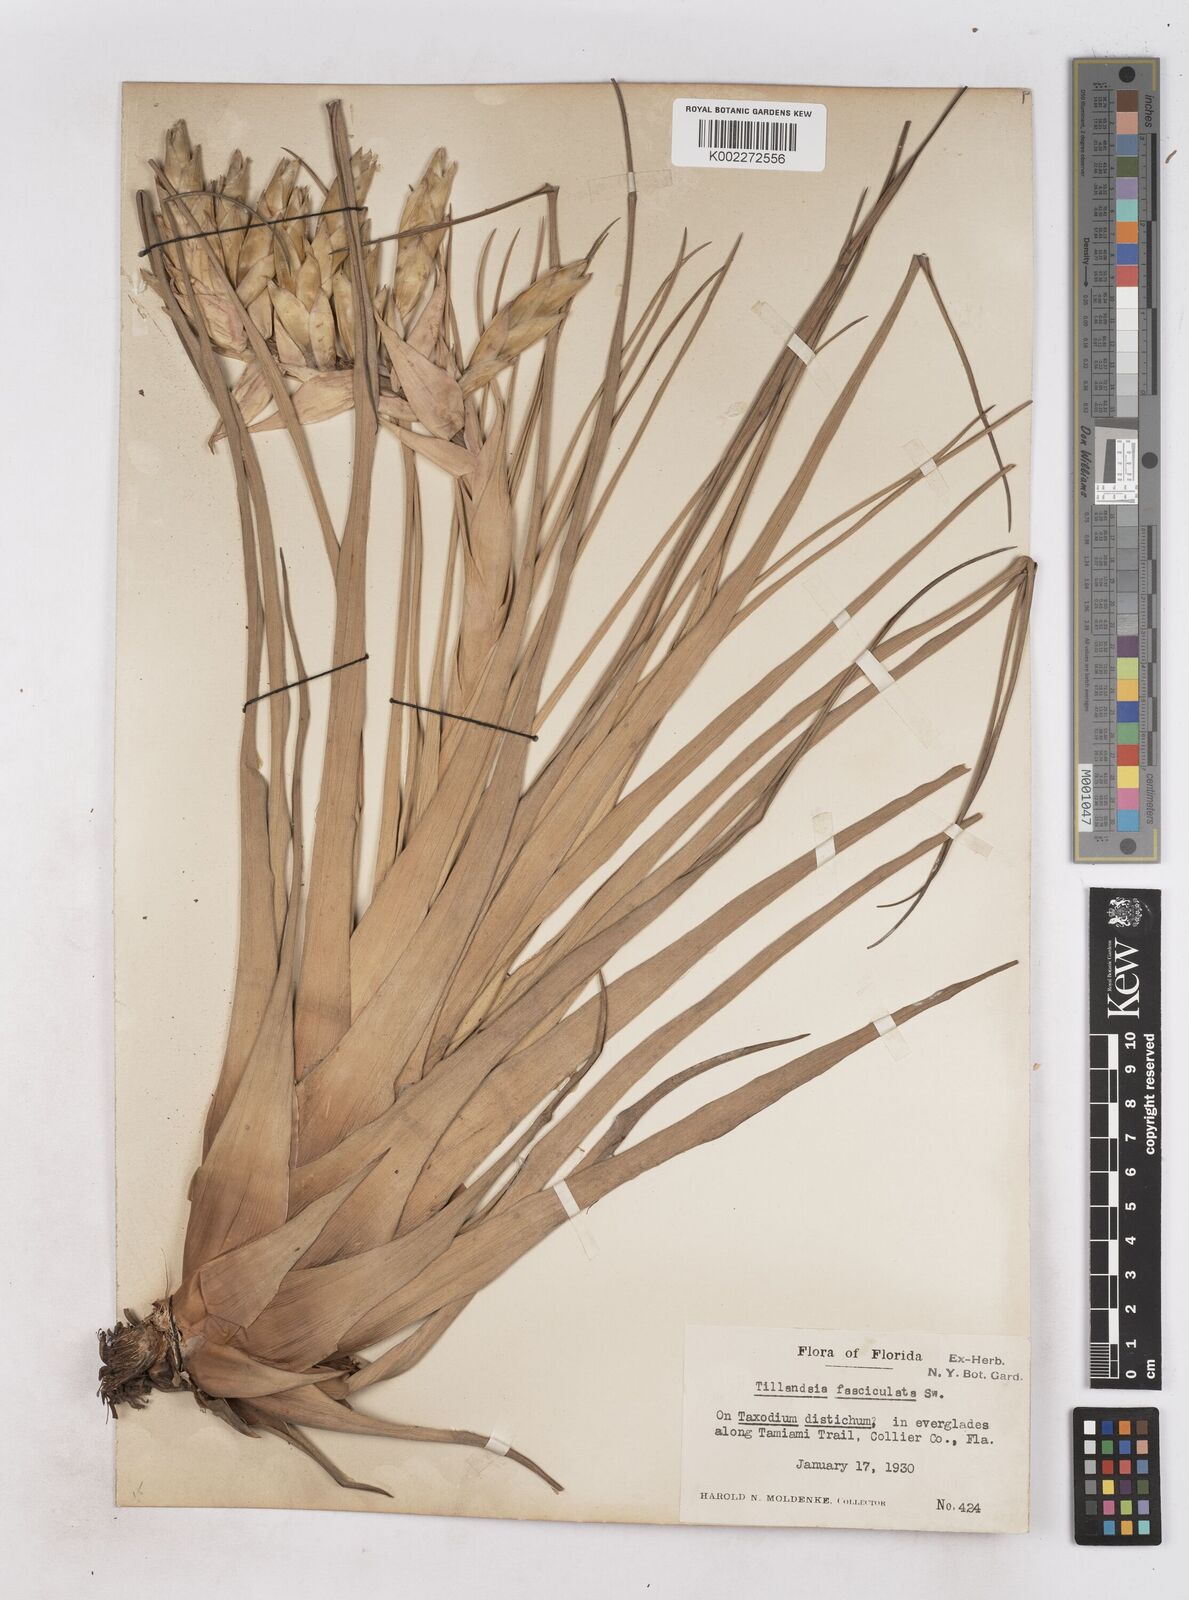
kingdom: Plantae
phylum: Tracheophyta
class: Liliopsida
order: Poales
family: Bromeliaceae
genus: Tillandsia
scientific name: Tillandsia fasciculata
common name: Giant airplant
